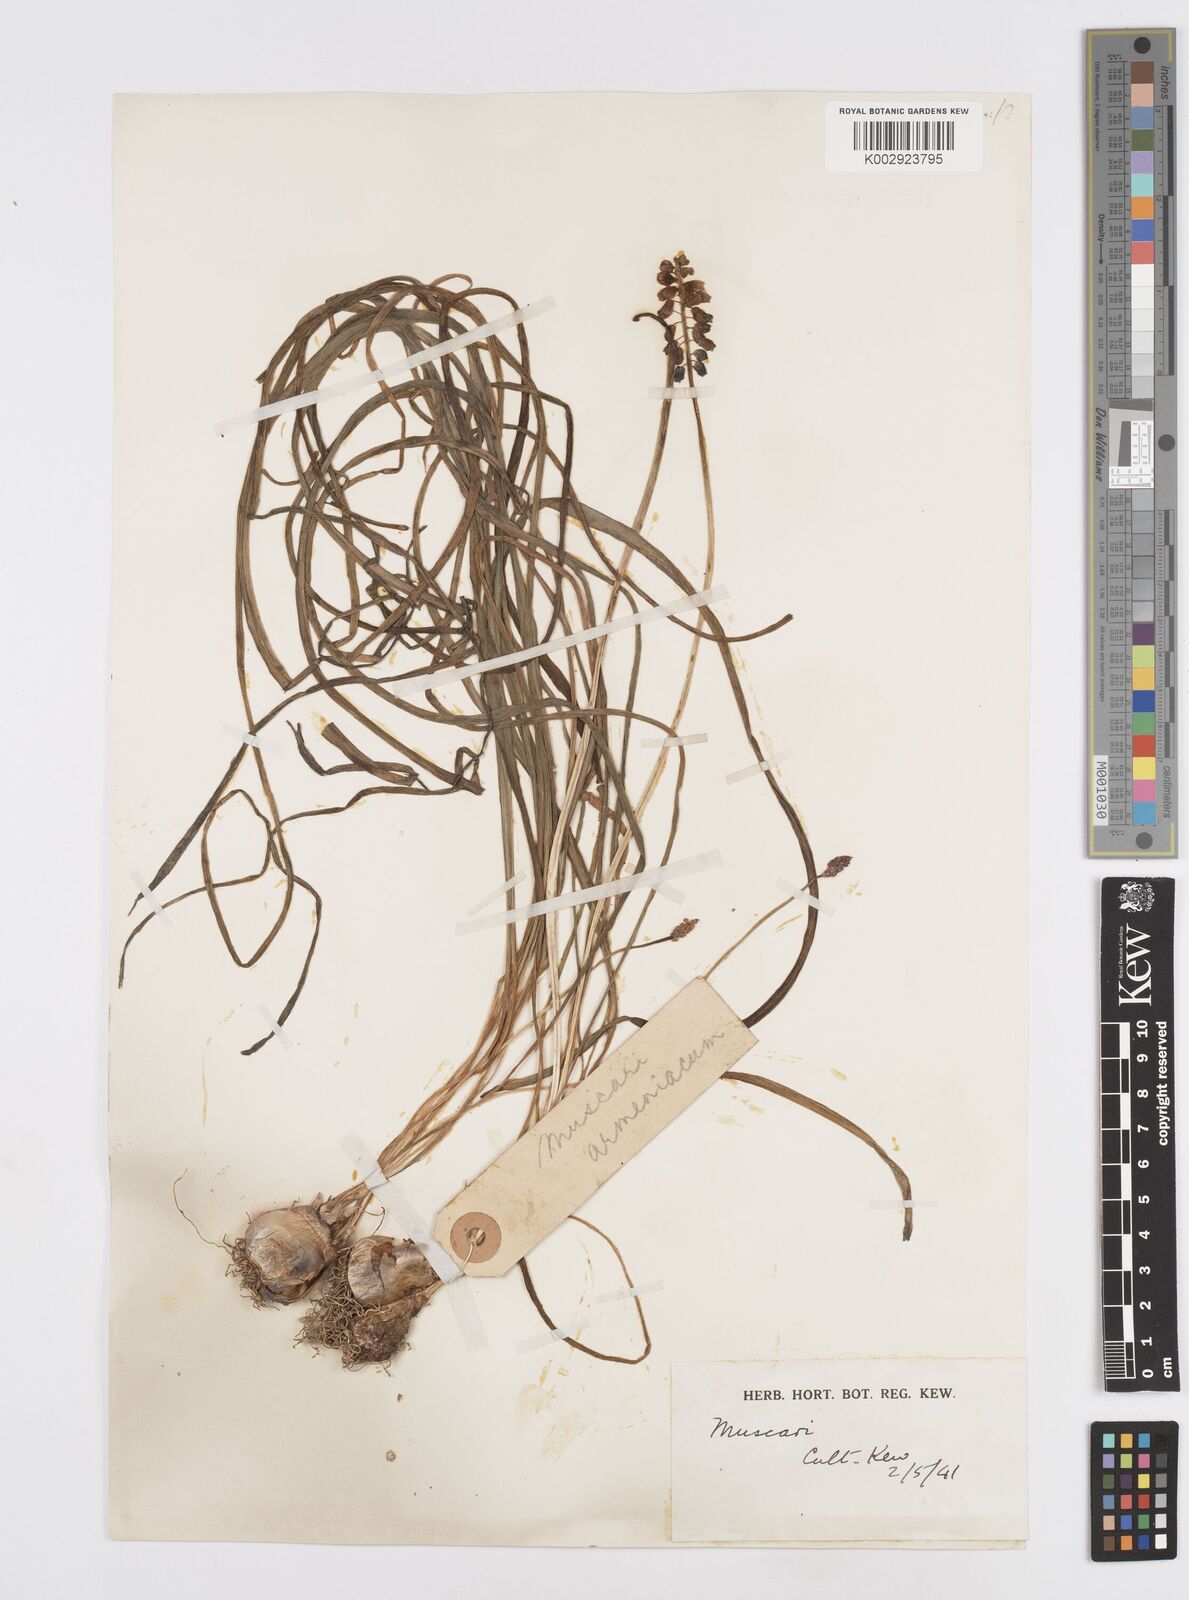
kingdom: Plantae
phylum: Tracheophyta
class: Liliopsida
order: Asparagales
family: Asparagaceae
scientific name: Asparagaceae
